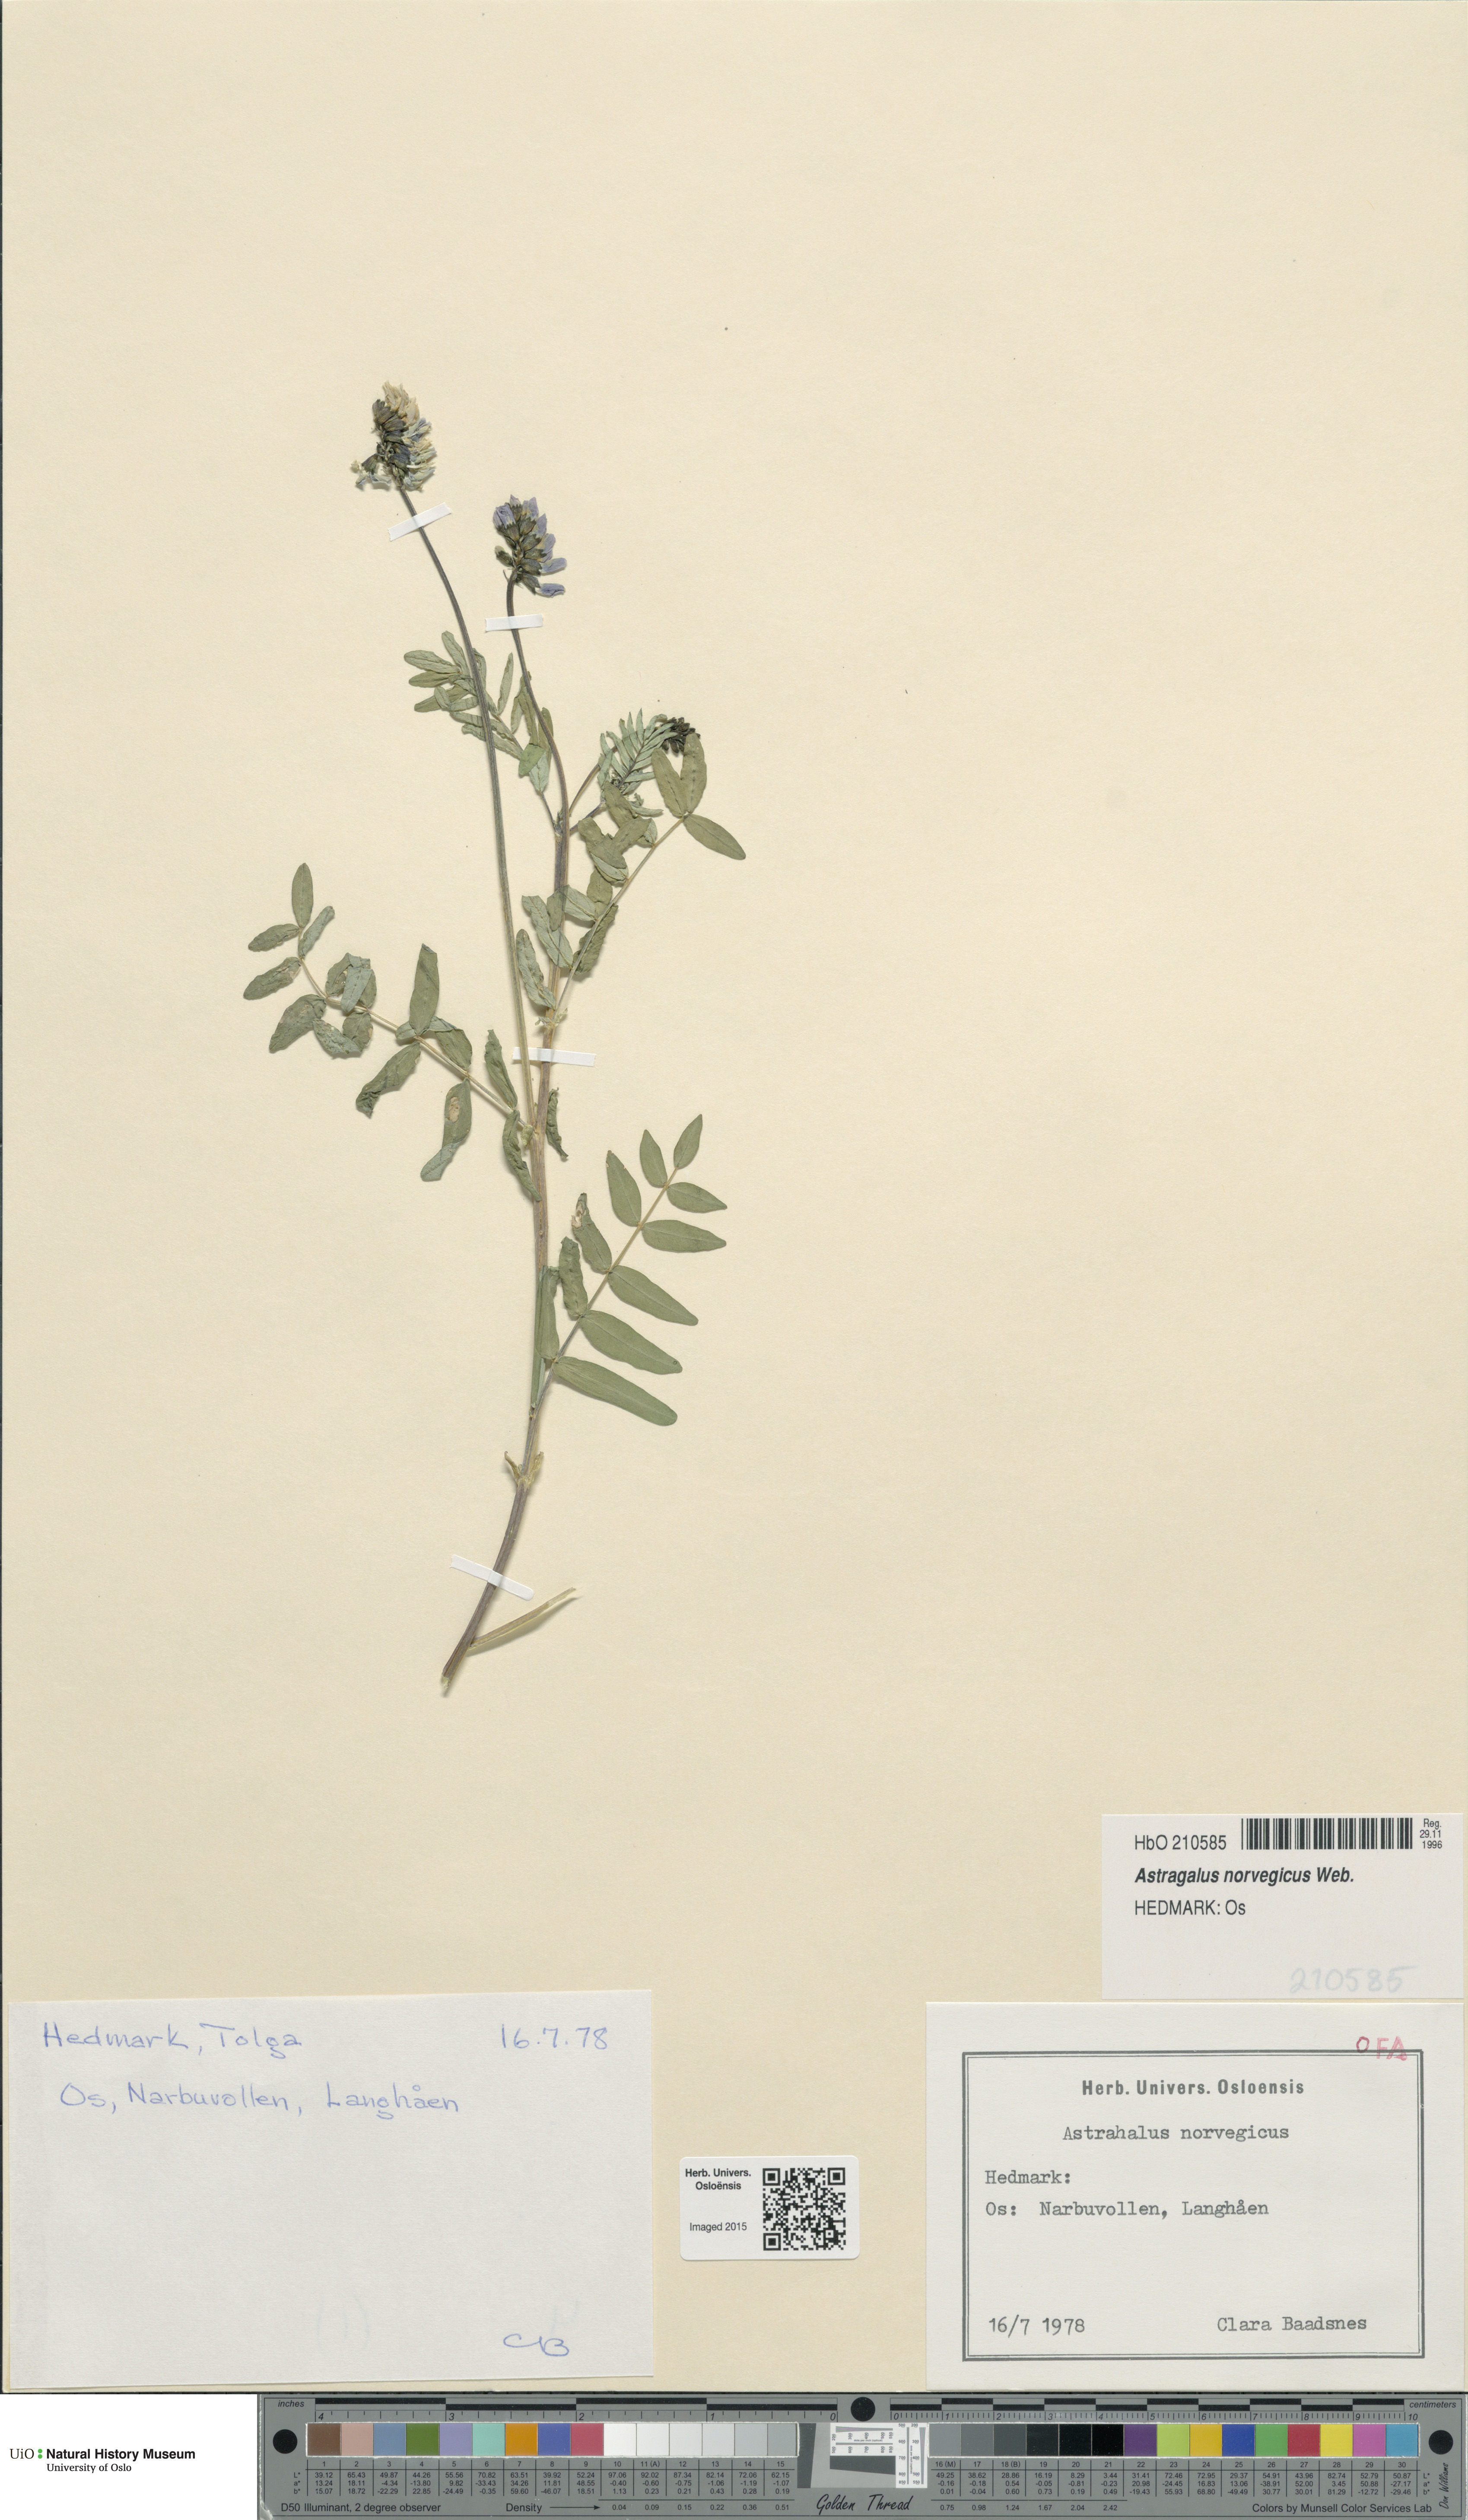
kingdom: Plantae
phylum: Tracheophyta
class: Magnoliopsida
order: Fabales
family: Fabaceae
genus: Astragalus
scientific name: Astragalus norvegicus
